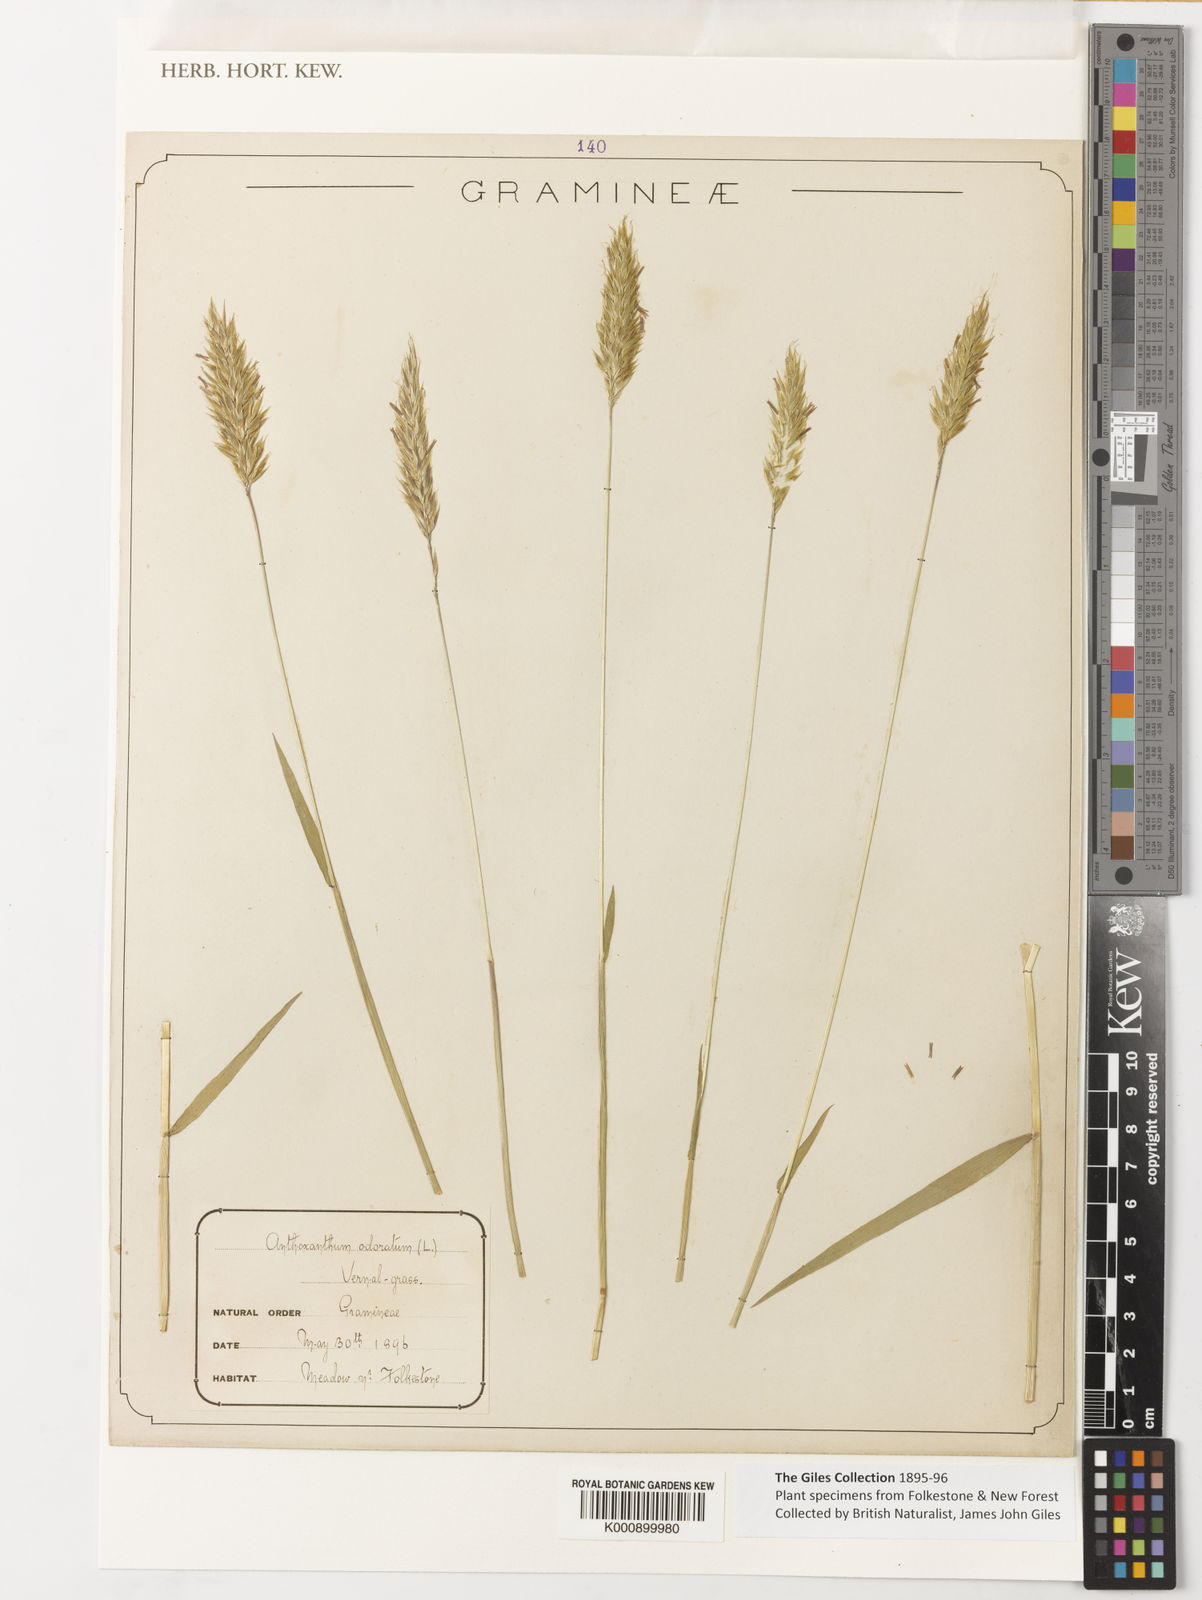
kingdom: Plantae
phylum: Tracheophyta
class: Liliopsida
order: Poales
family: Poaceae
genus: Anthoxanthum
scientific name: Anthoxanthum
